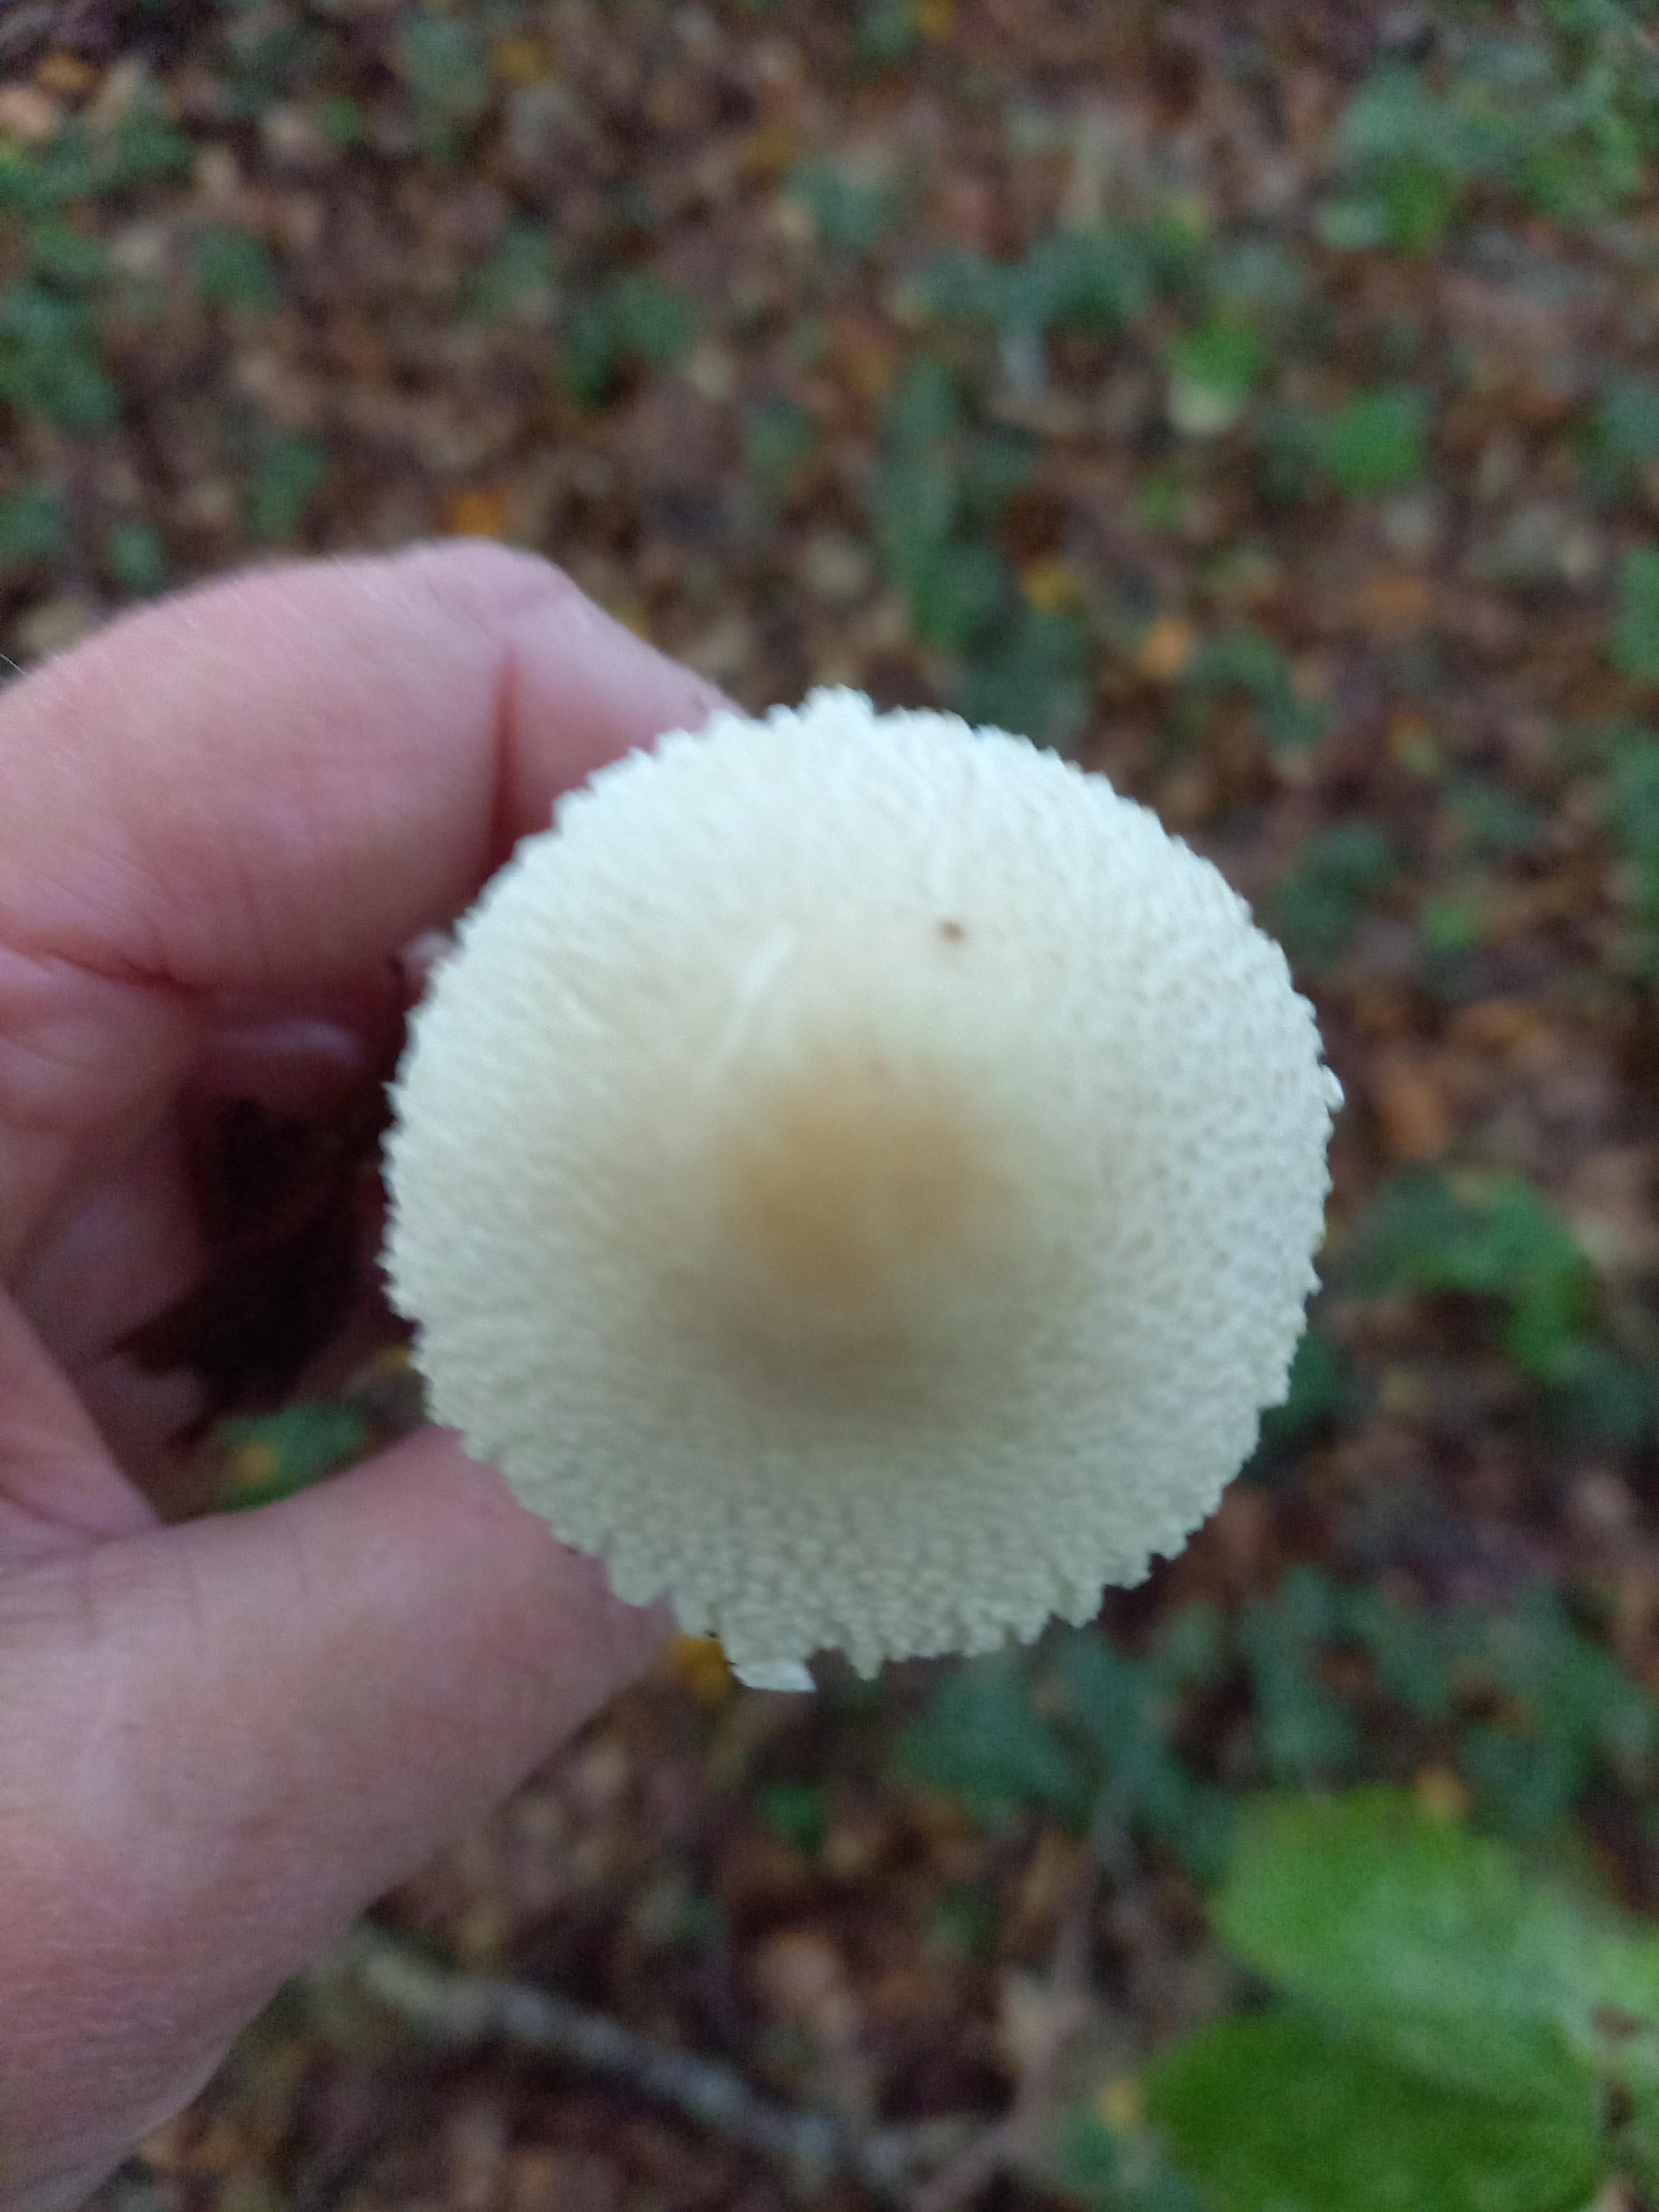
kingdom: Fungi
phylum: Basidiomycota
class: Agaricomycetes
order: Agaricales
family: Agaricaceae
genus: Lepiota
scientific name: Lepiota clypeolaria
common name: flosset parasolhat
